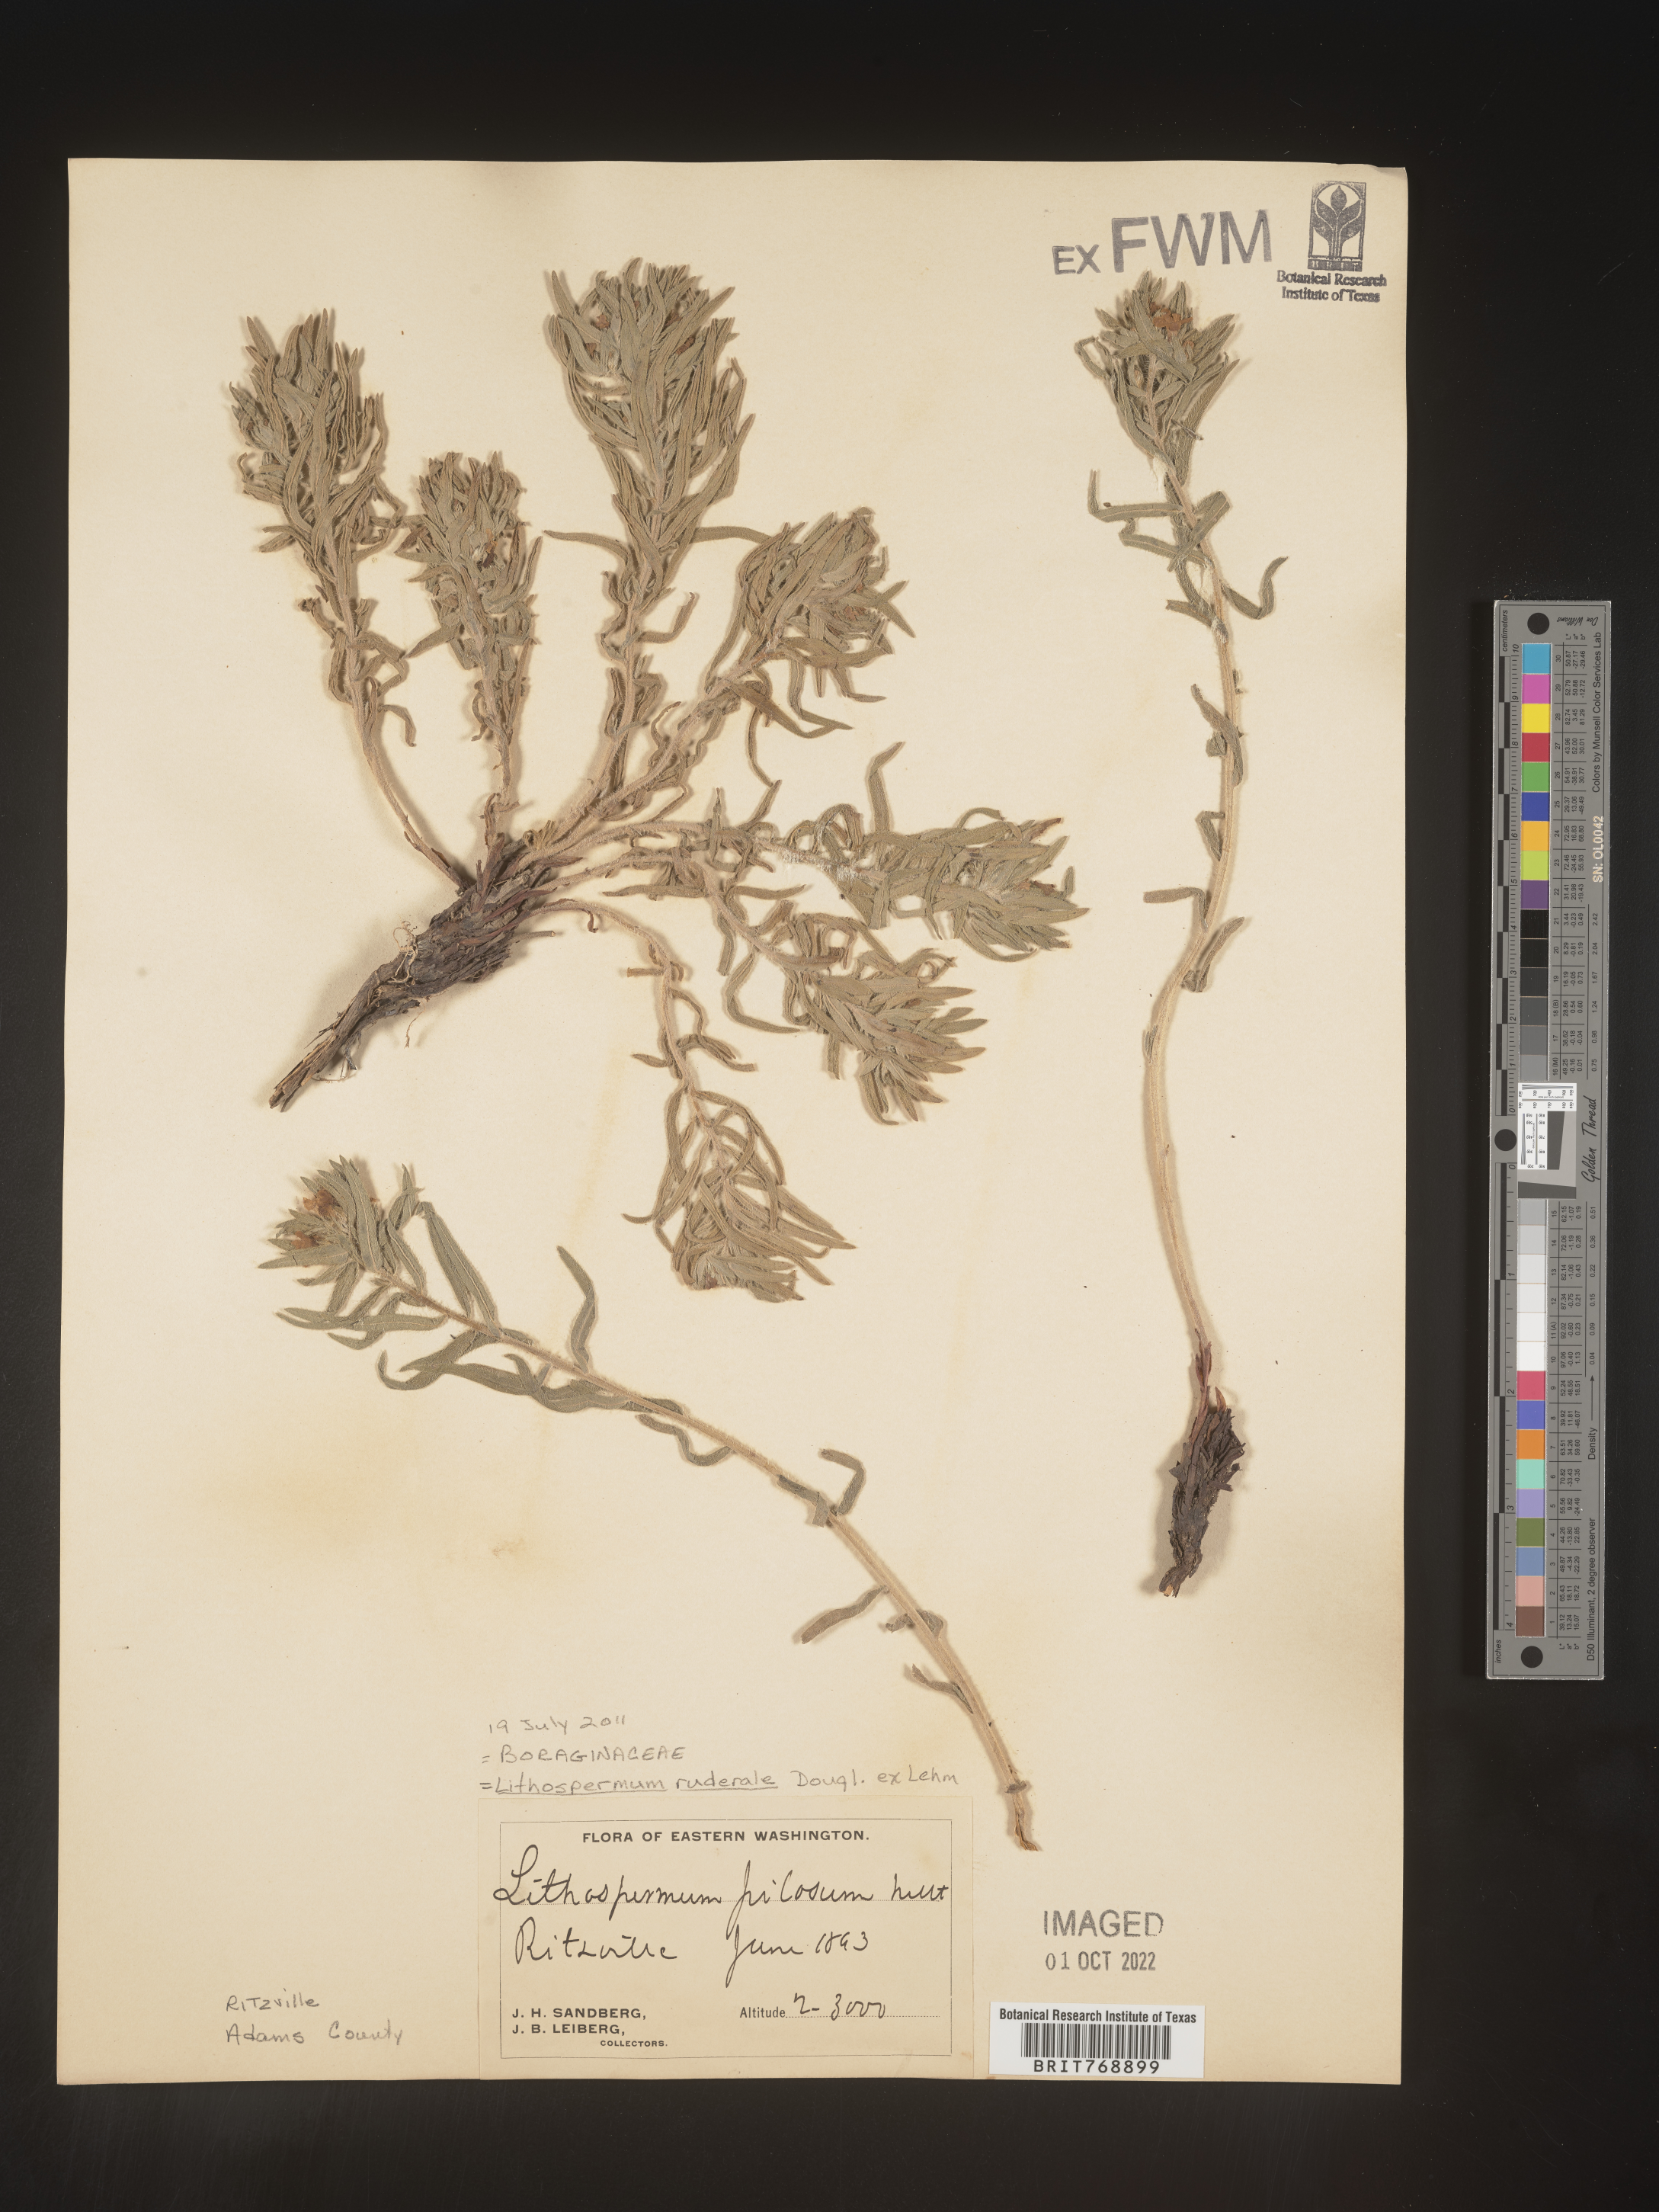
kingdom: Plantae
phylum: Tracheophyta
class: Magnoliopsida
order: Boraginales
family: Boraginaceae
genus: Lithospermum
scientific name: Lithospermum
